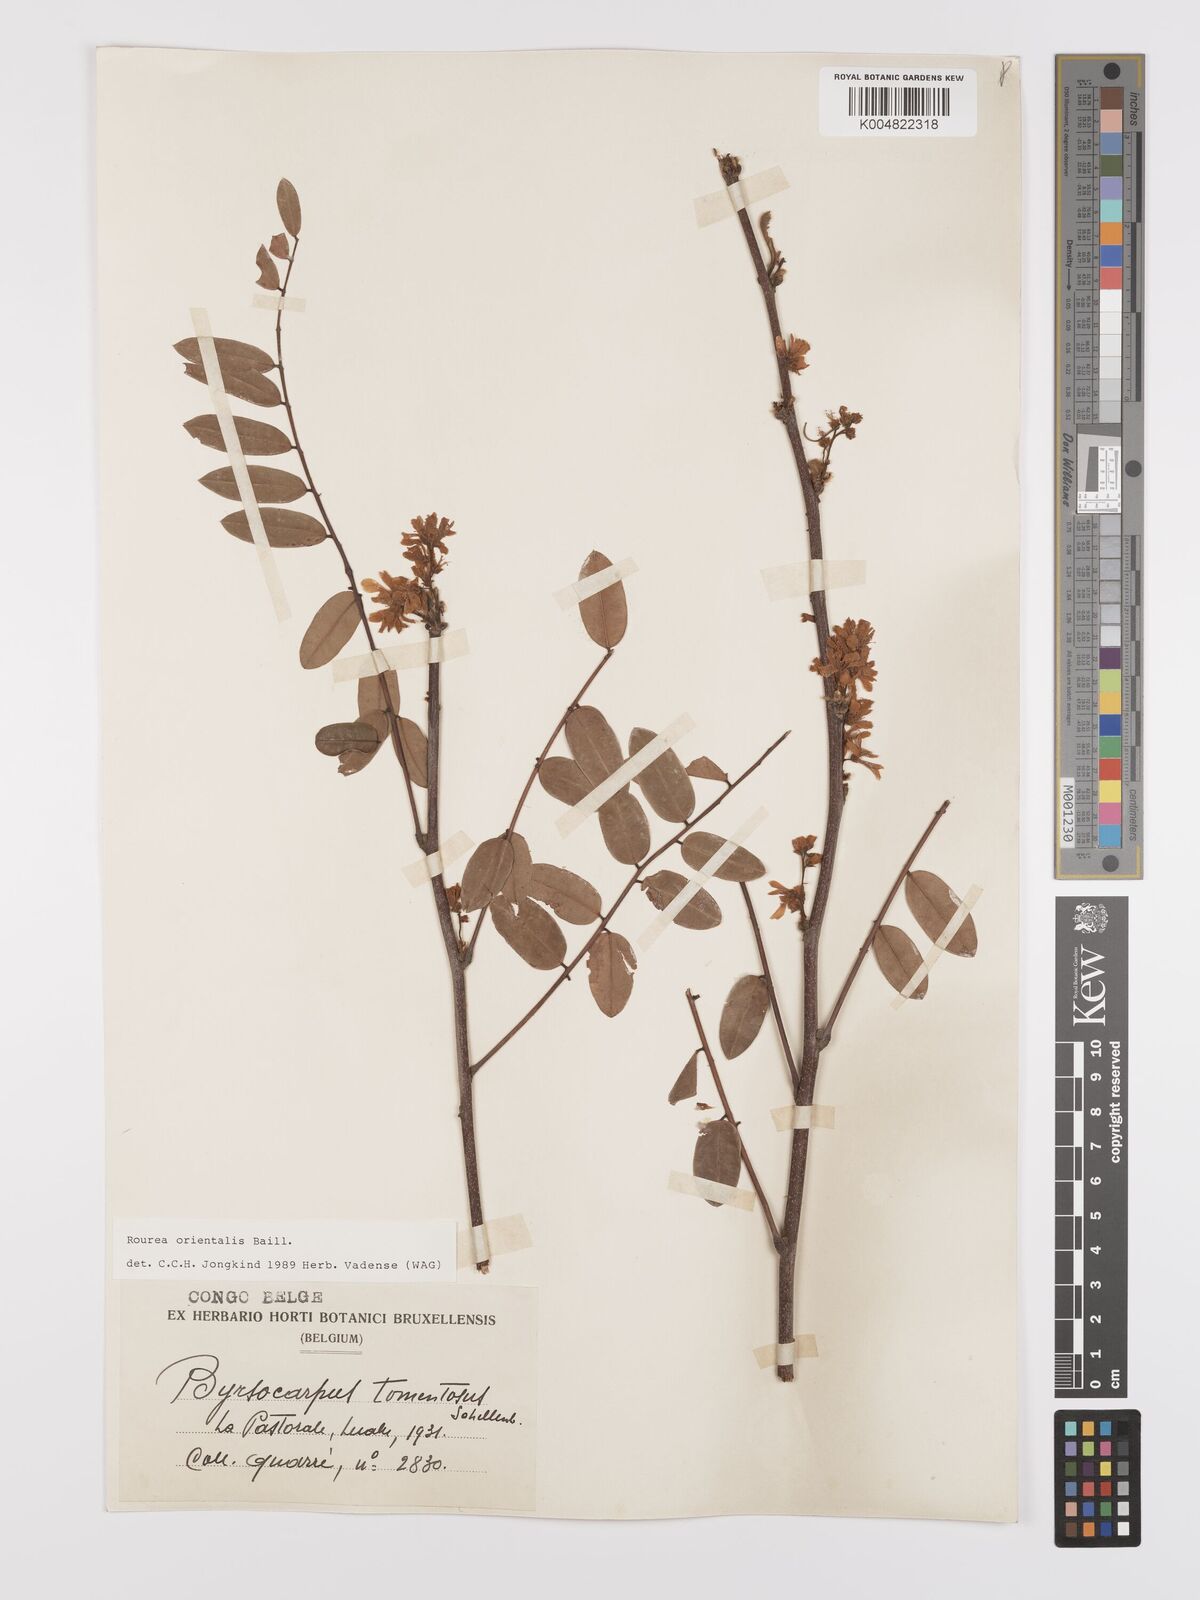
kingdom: Plantae
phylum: Tracheophyta
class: Magnoliopsida
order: Oxalidales
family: Connaraceae
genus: Rourea
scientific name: Rourea orientalis
